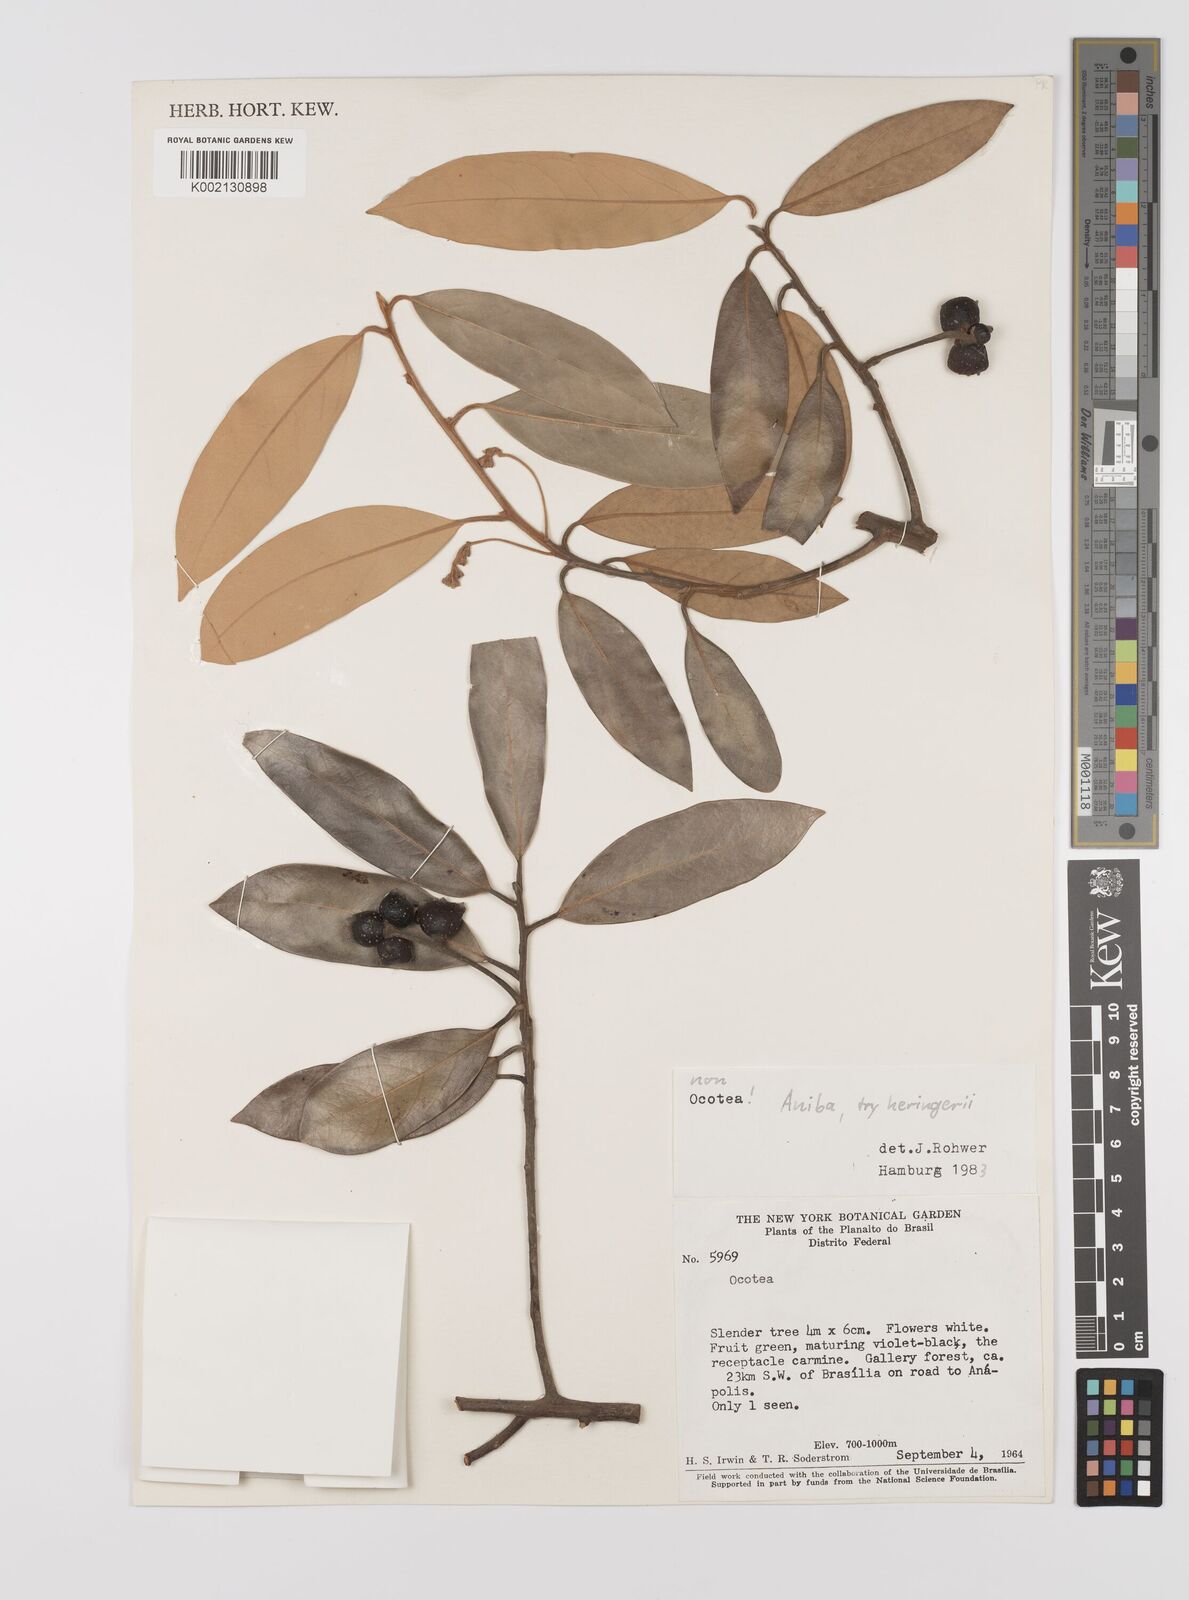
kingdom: Plantae
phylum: Tracheophyta
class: Magnoliopsida
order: Laurales
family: Lauraceae
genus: Aniba
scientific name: Aniba heringeri
